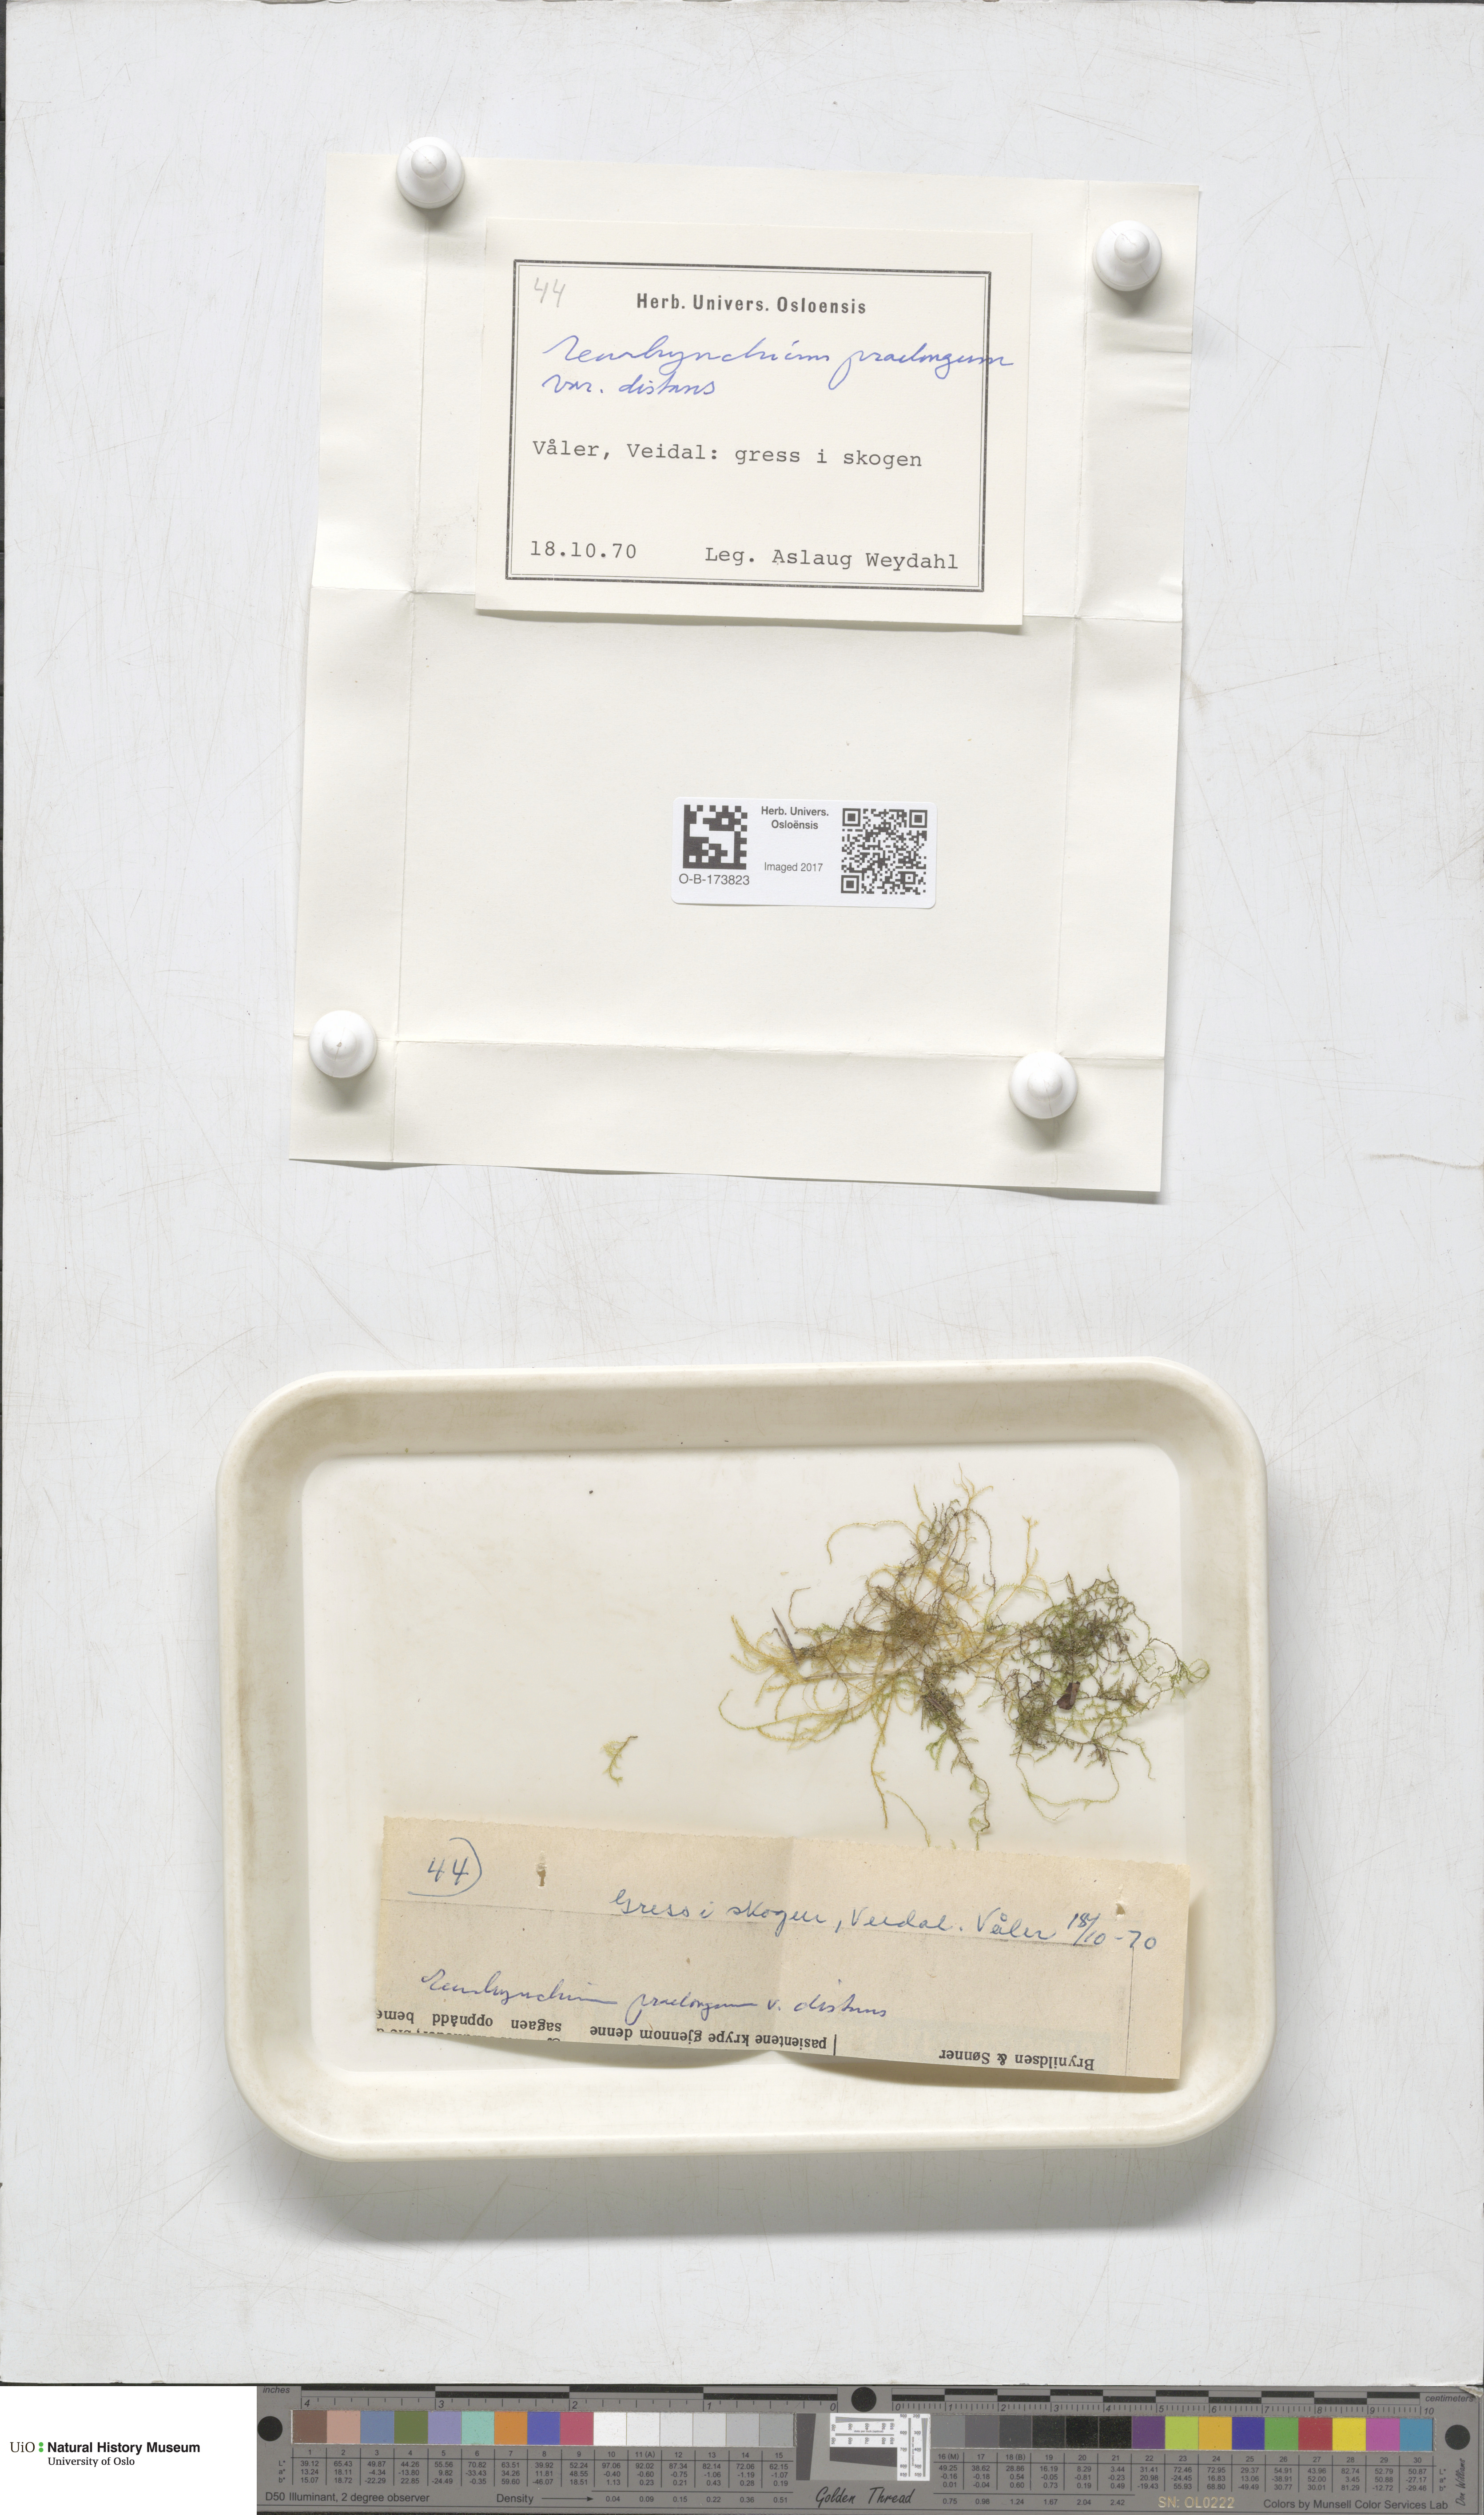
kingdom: Plantae
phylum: Bryophyta
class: Bryopsida
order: Hypnales
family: Brachytheciaceae
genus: Kindbergia
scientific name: Kindbergia praelonga
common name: Slender beaked moss
